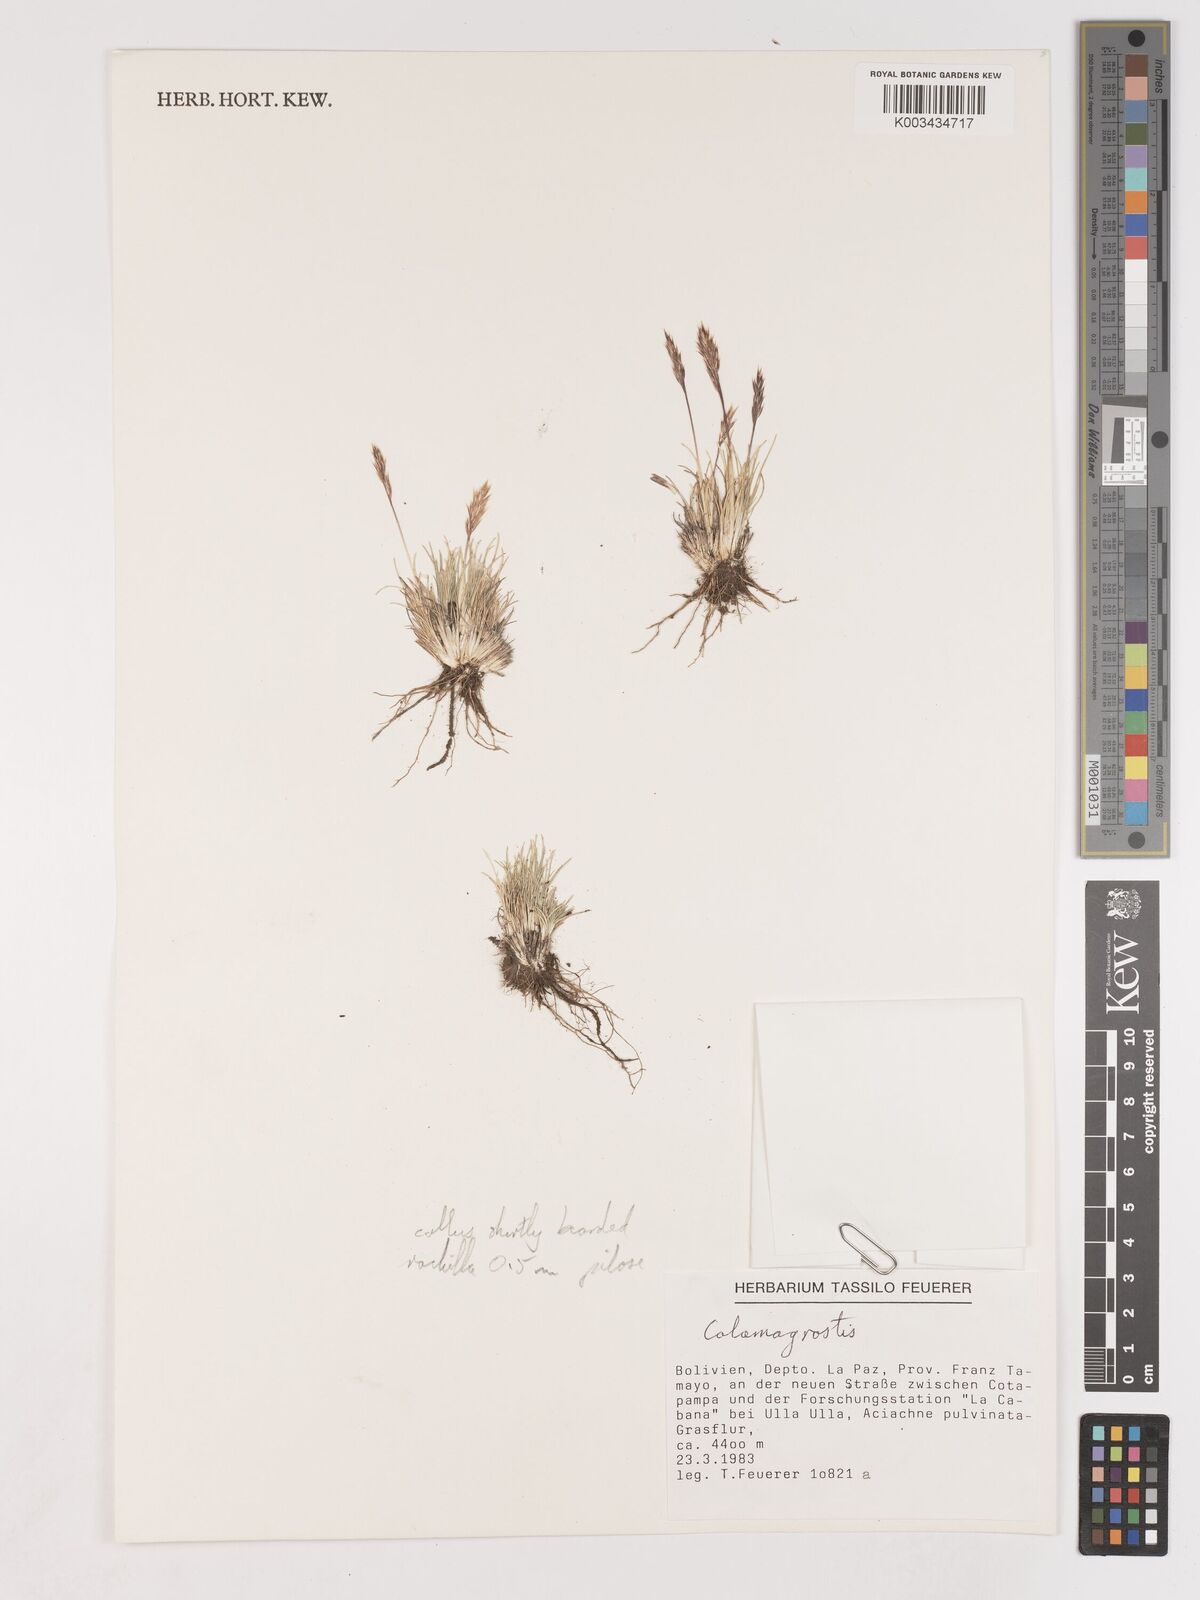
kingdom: Plantae
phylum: Tracheophyta
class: Liliopsida
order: Poales
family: Poaceae
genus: Cinnagrostis
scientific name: Cinnagrostis vicunarum
